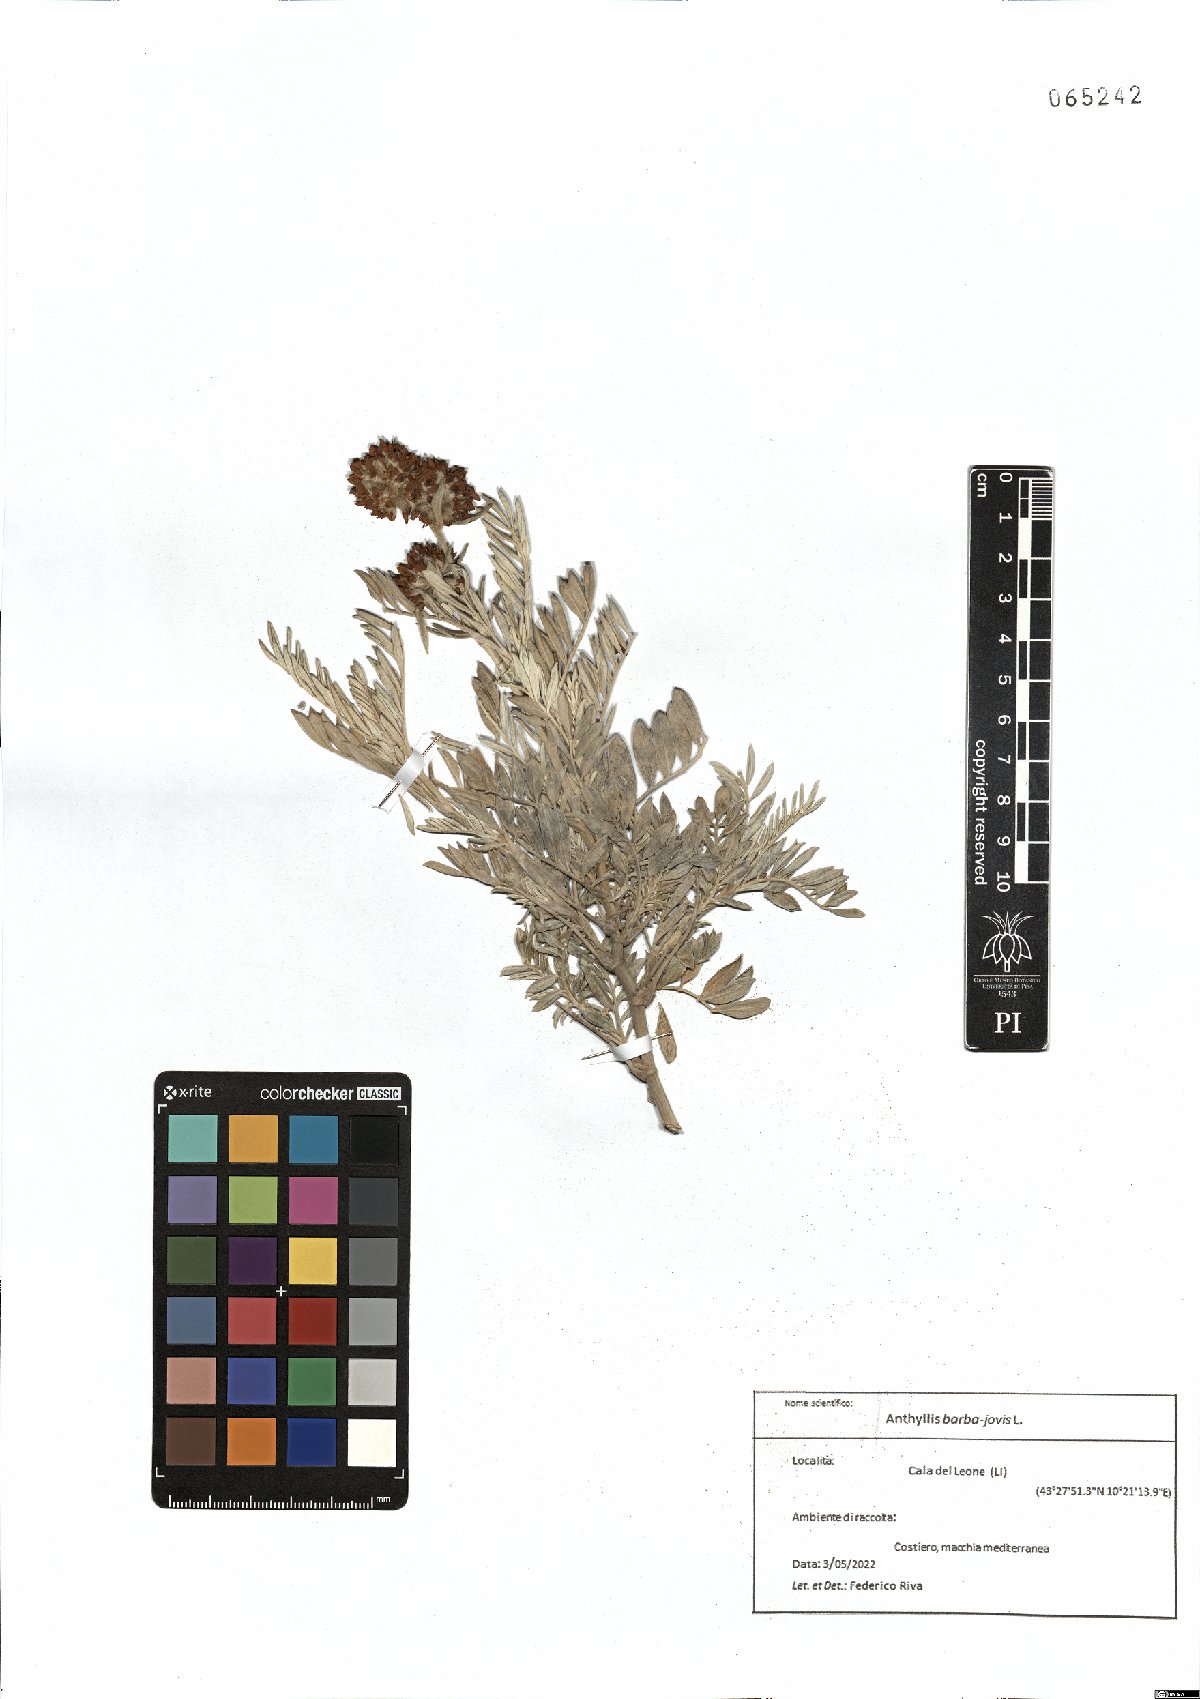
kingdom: Plantae
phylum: Tracheophyta
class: Magnoliopsida
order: Fabales
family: Fabaceae
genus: Anthyllis
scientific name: Anthyllis barba-jovis
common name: Jupiter's-beard
